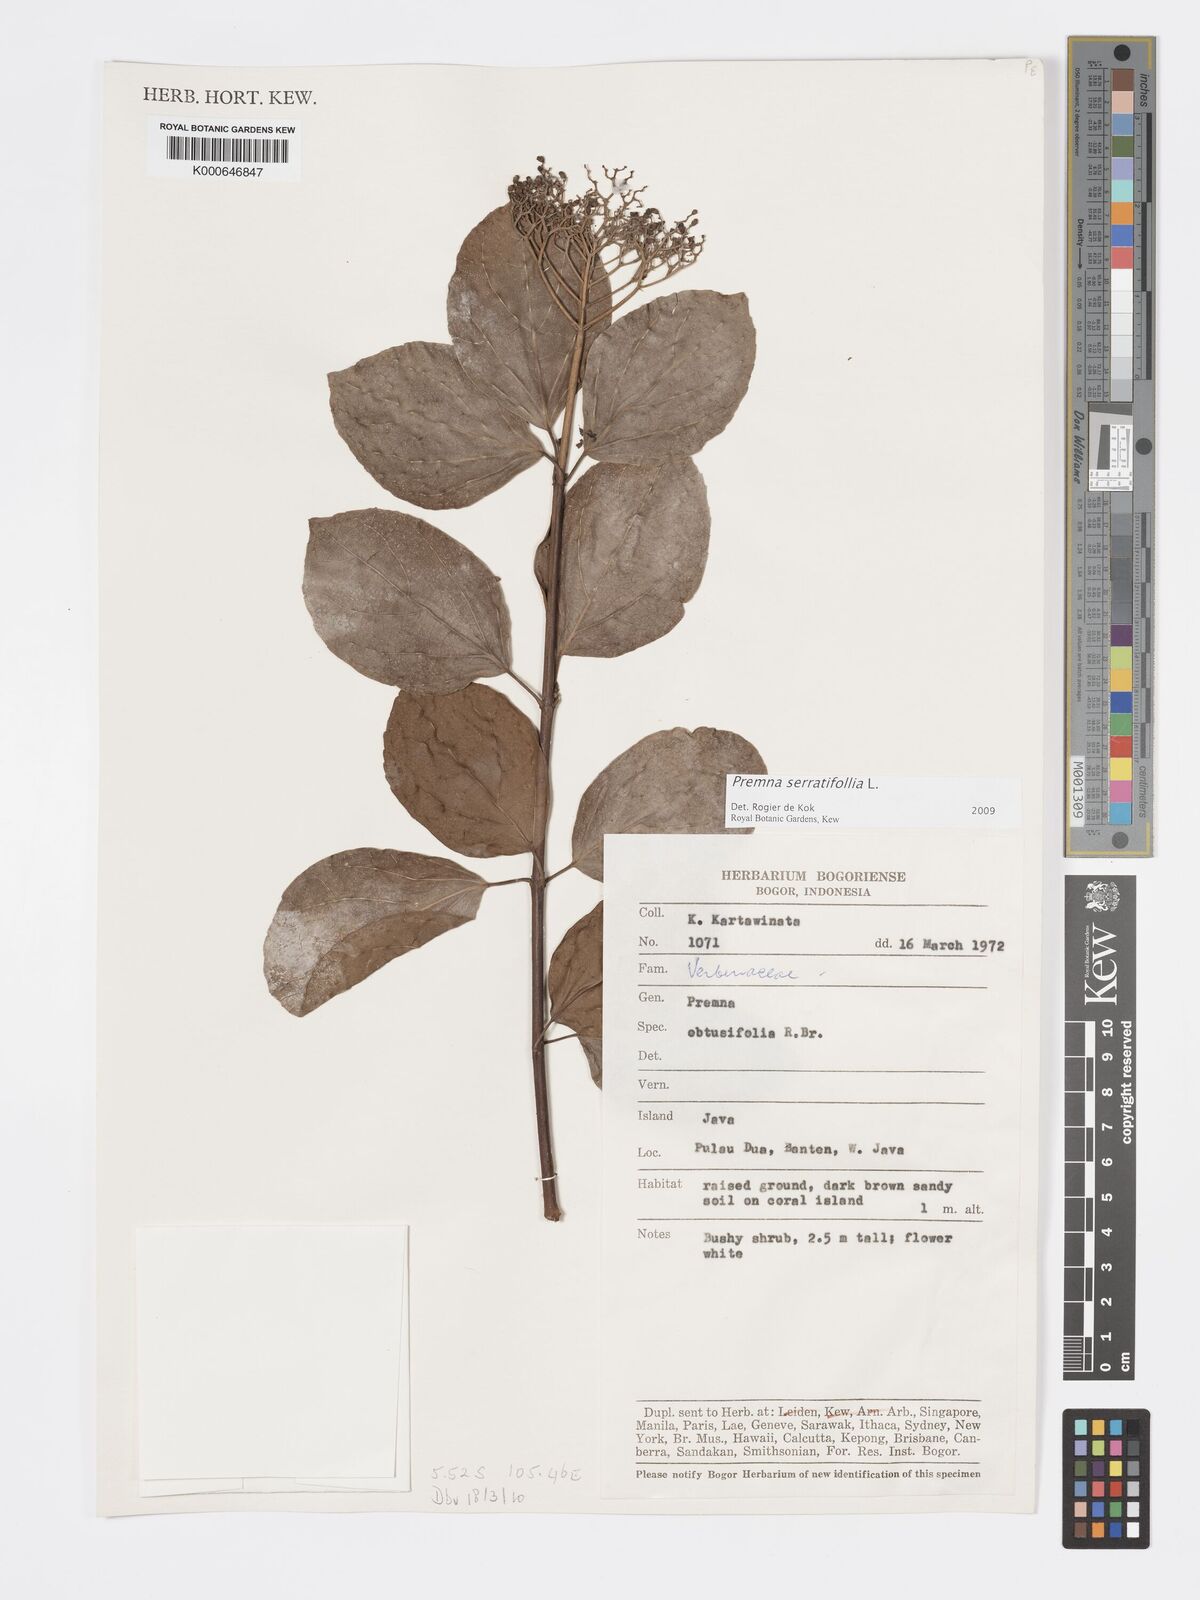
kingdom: Plantae
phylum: Tracheophyta
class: Magnoliopsida
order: Lamiales
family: Lamiaceae
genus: Premna
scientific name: Premna serratifolia
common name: Bastard guelder
